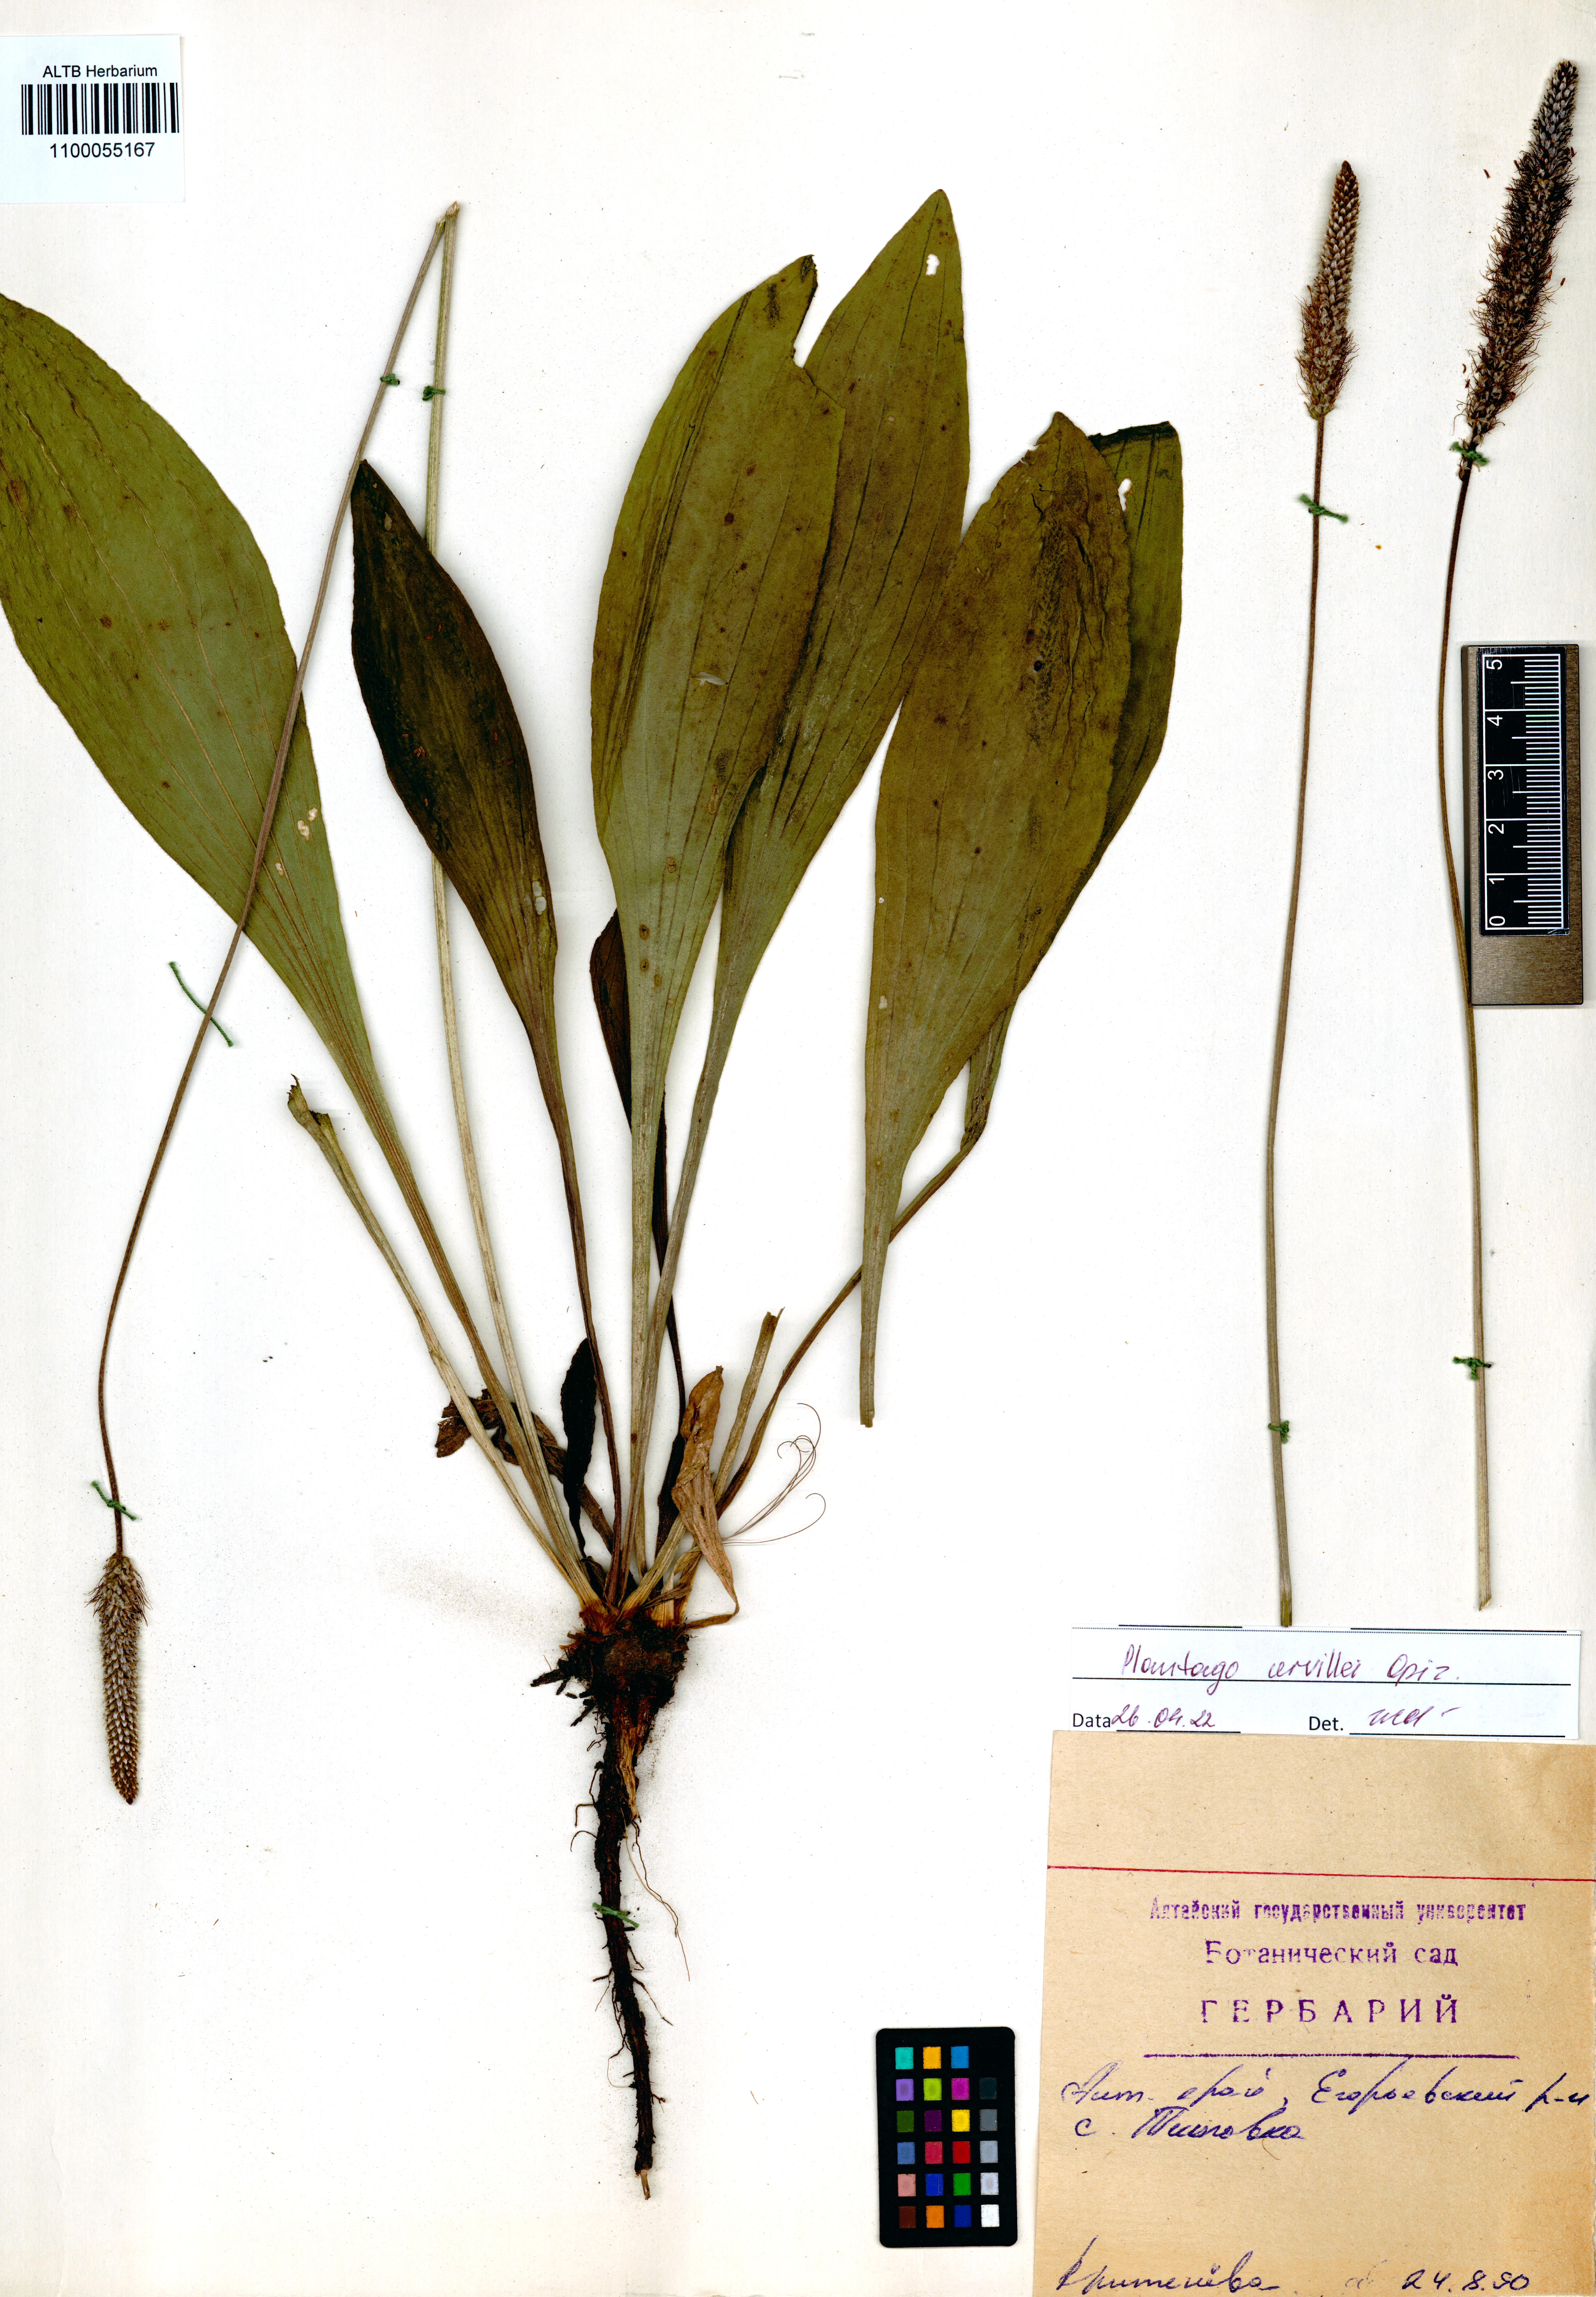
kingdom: Plantae
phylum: Tracheophyta
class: Magnoliopsida
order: Lamiales
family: Plantaginaceae
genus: Plantago
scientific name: Plantago urvillei
